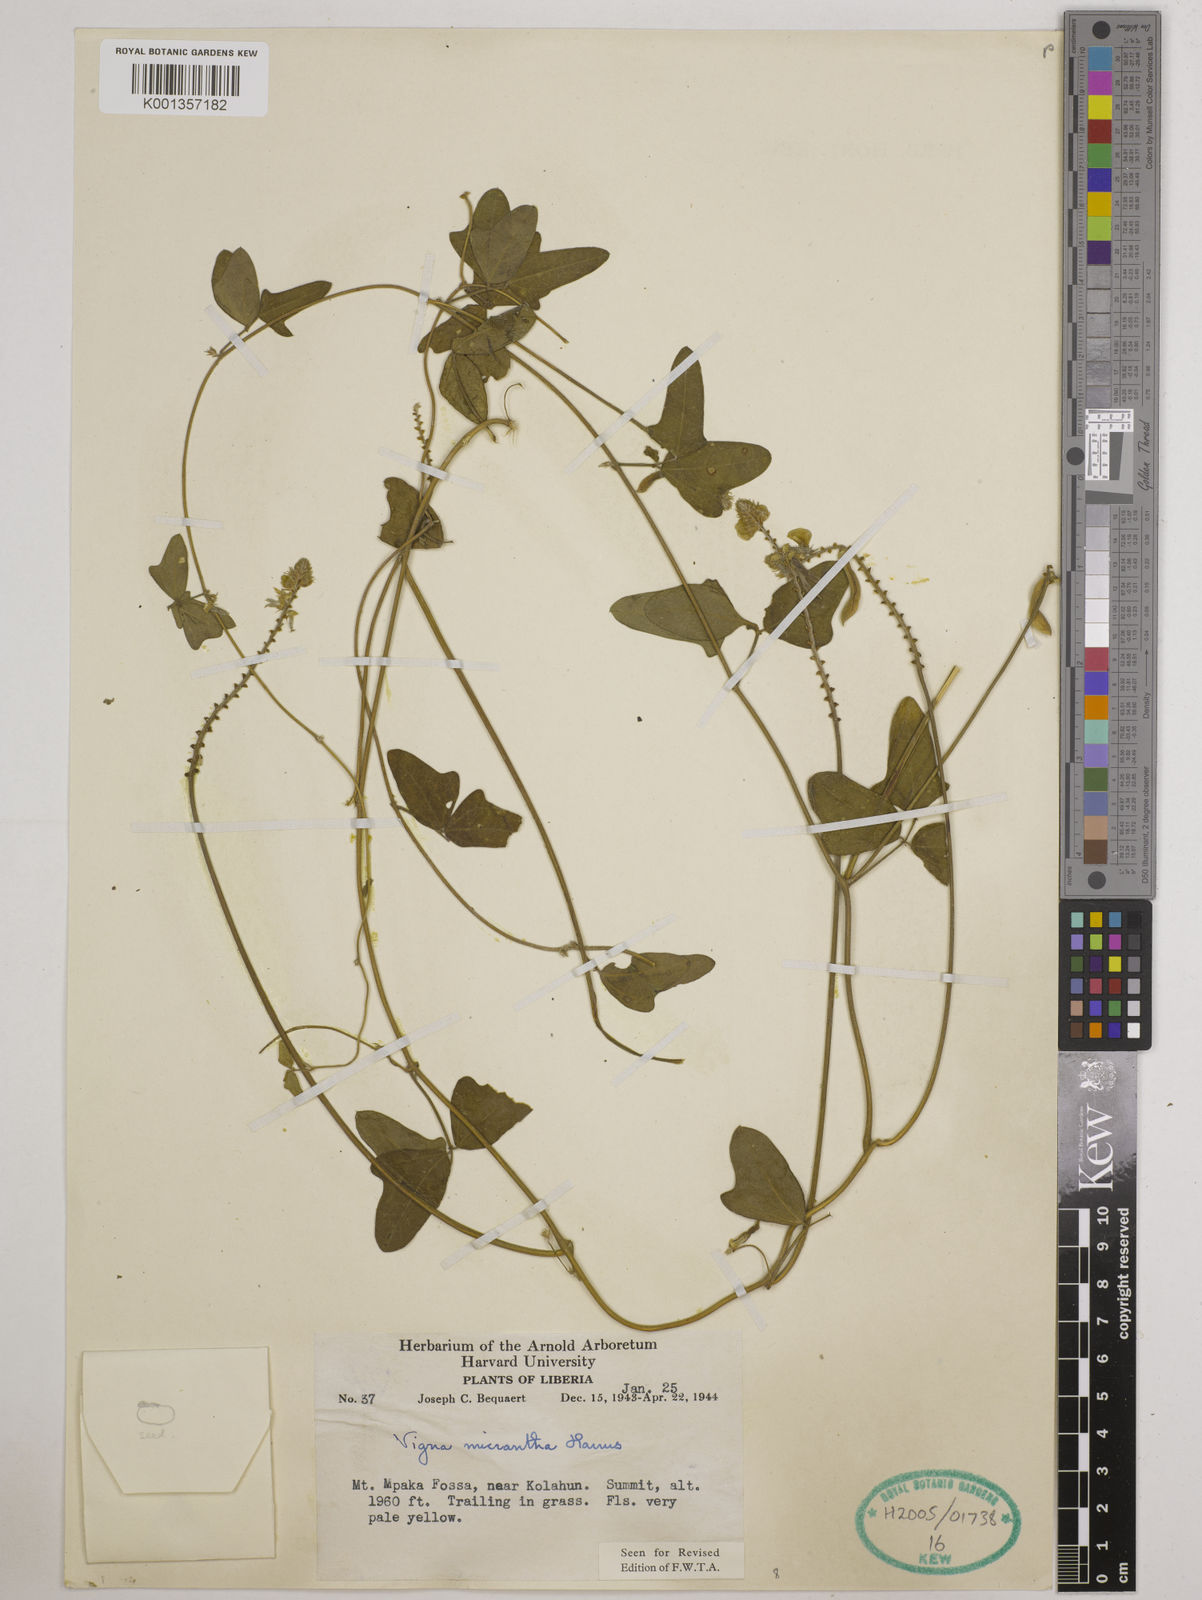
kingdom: Plantae
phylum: Tracheophyta
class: Magnoliopsida
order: Fabales
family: Fabaceae
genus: Vigna
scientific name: Vigna comosa
